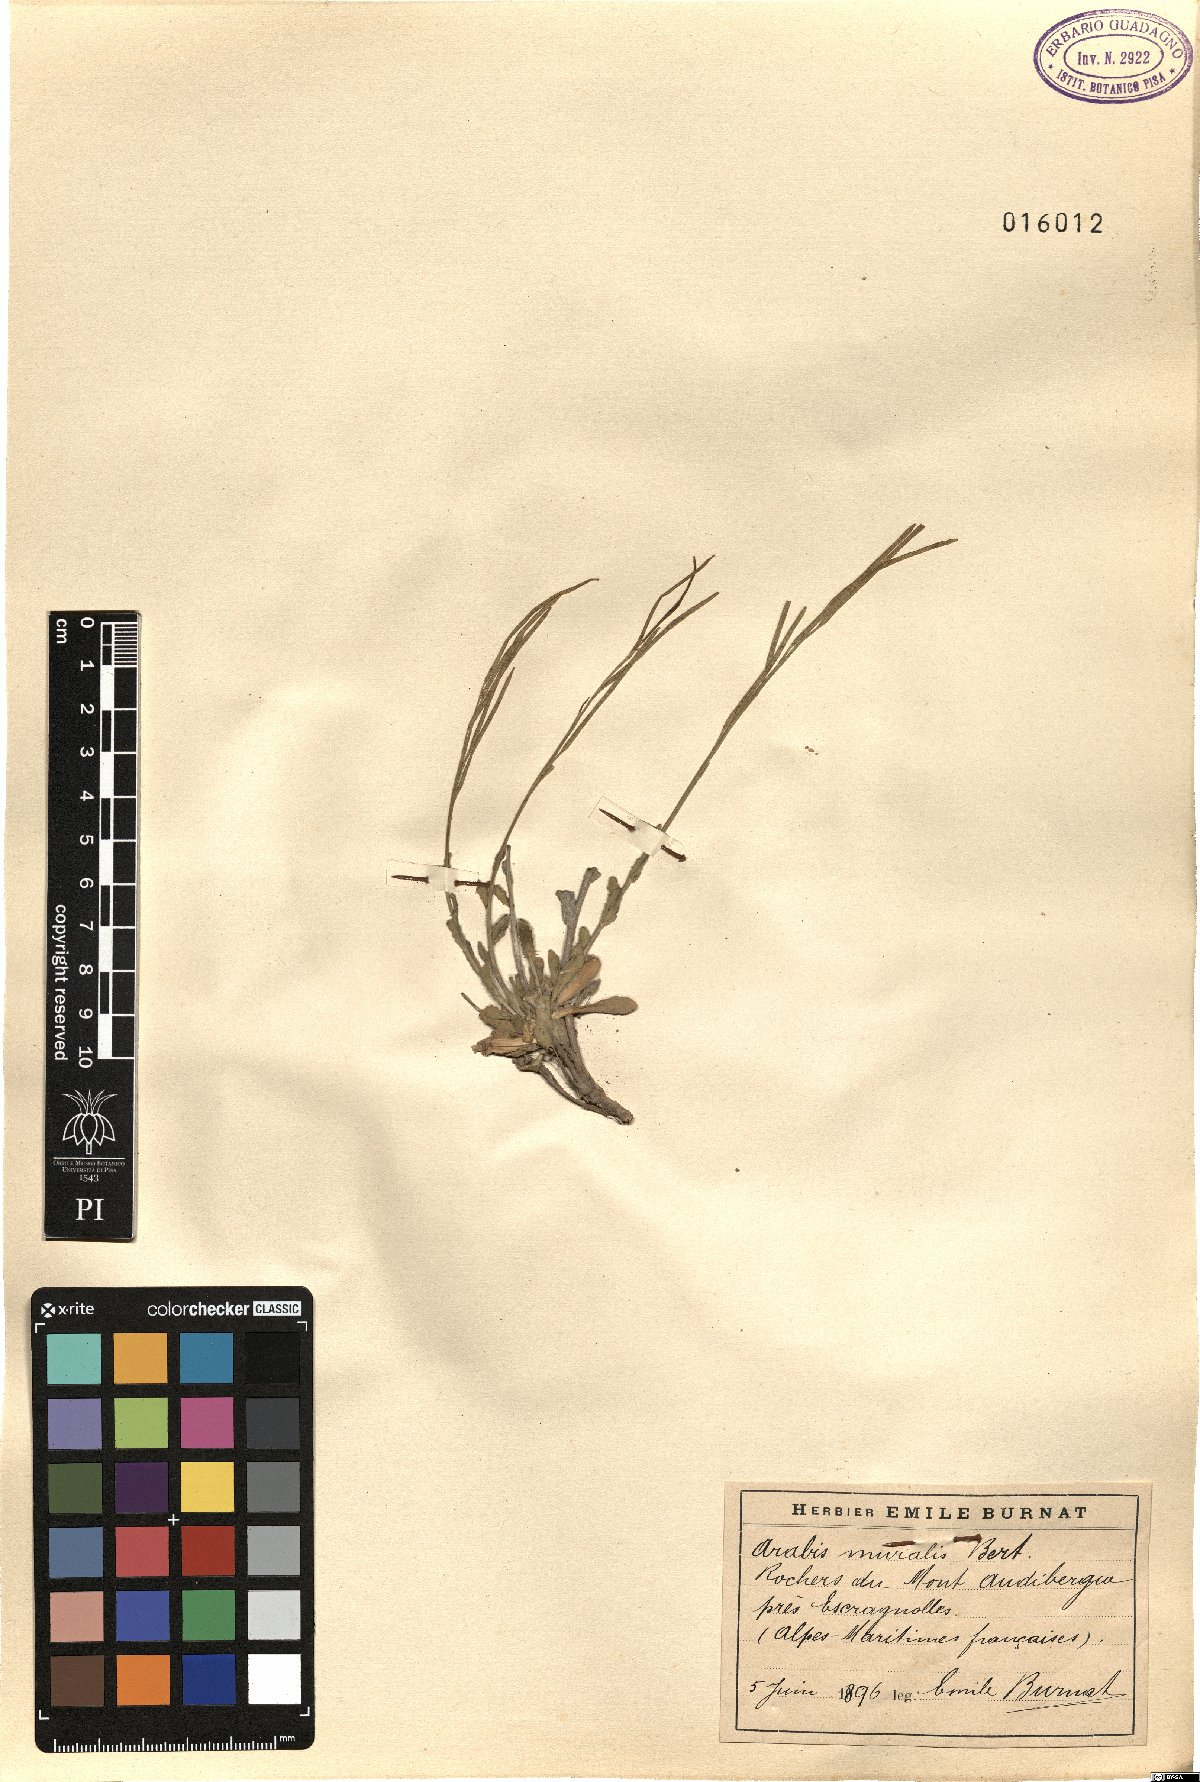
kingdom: Plantae
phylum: Tracheophyta
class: Magnoliopsida
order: Brassicales
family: Brassicaceae
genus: Arabis
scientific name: Arabis collina
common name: Rosy cress
